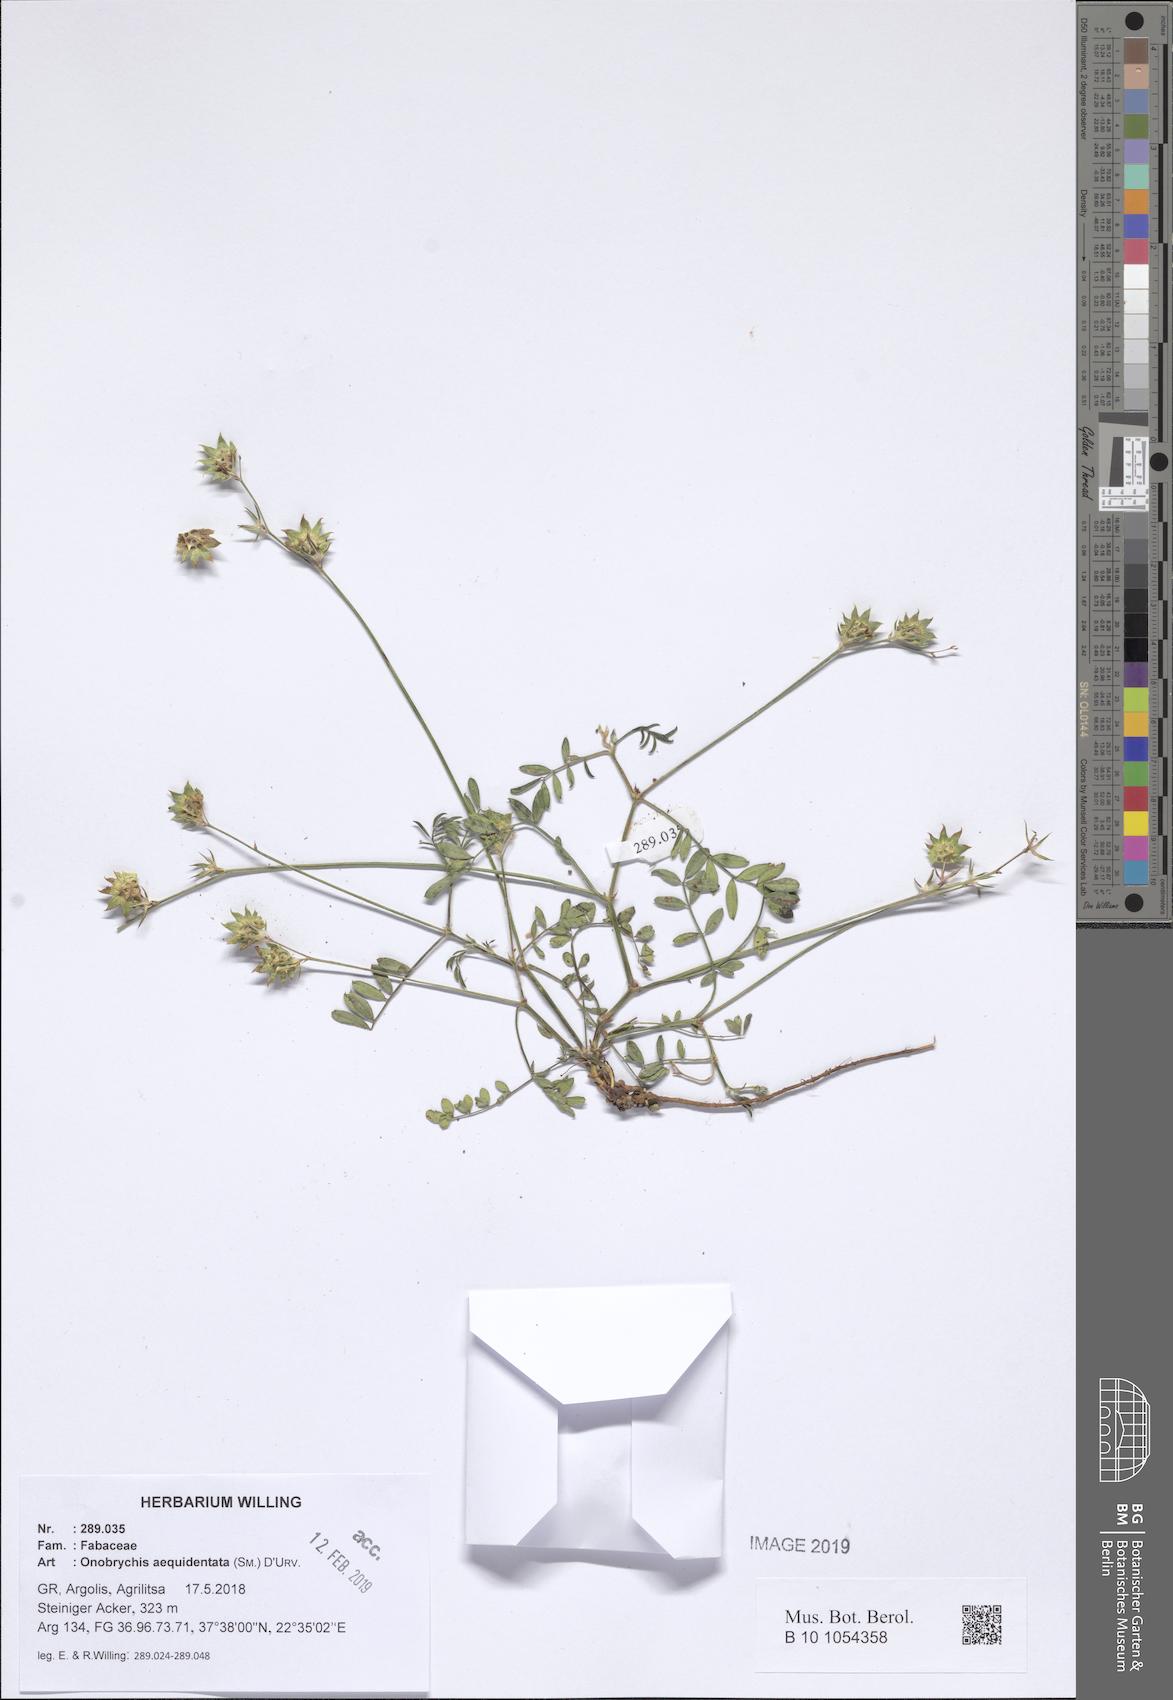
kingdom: Plantae
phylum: Tracheophyta
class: Magnoliopsida
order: Fabales
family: Fabaceae
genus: Onobrychis
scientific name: Onobrychis aequidentata
